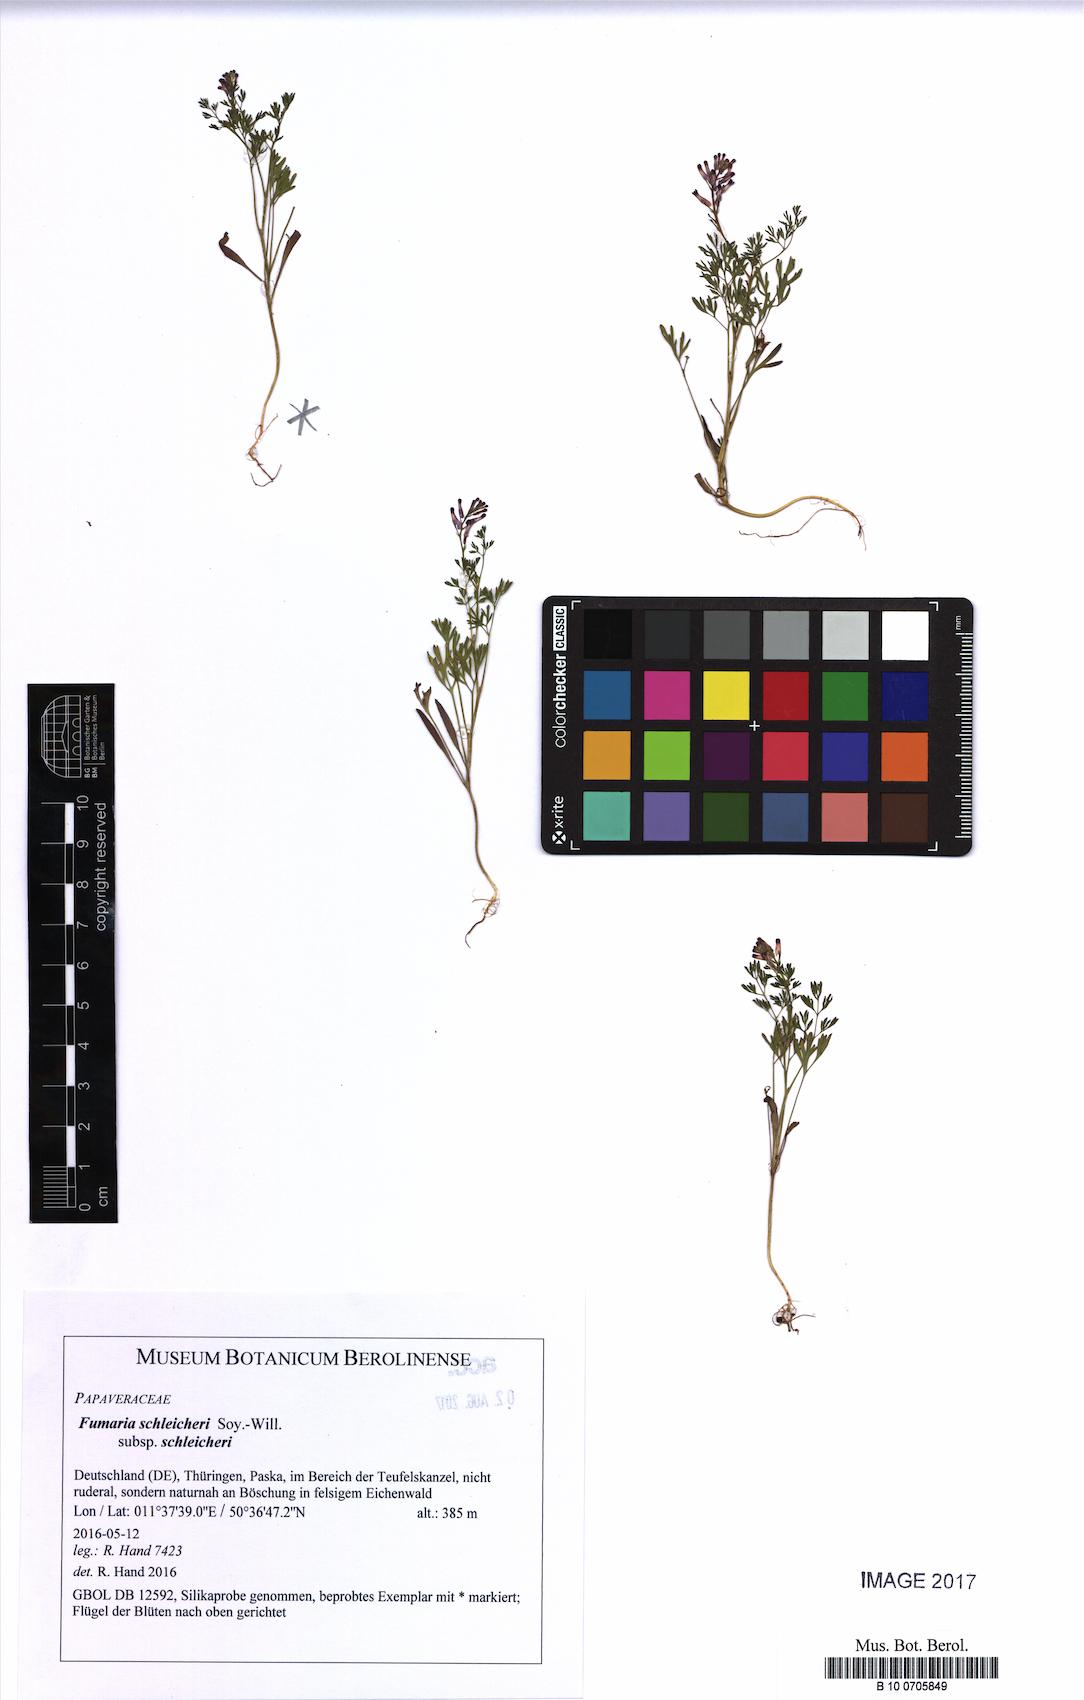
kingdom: Plantae
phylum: Tracheophyta
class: Magnoliopsida
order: Ranunculales
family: Papaveraceae
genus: Fumaria
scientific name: Fumaria schleicheri
